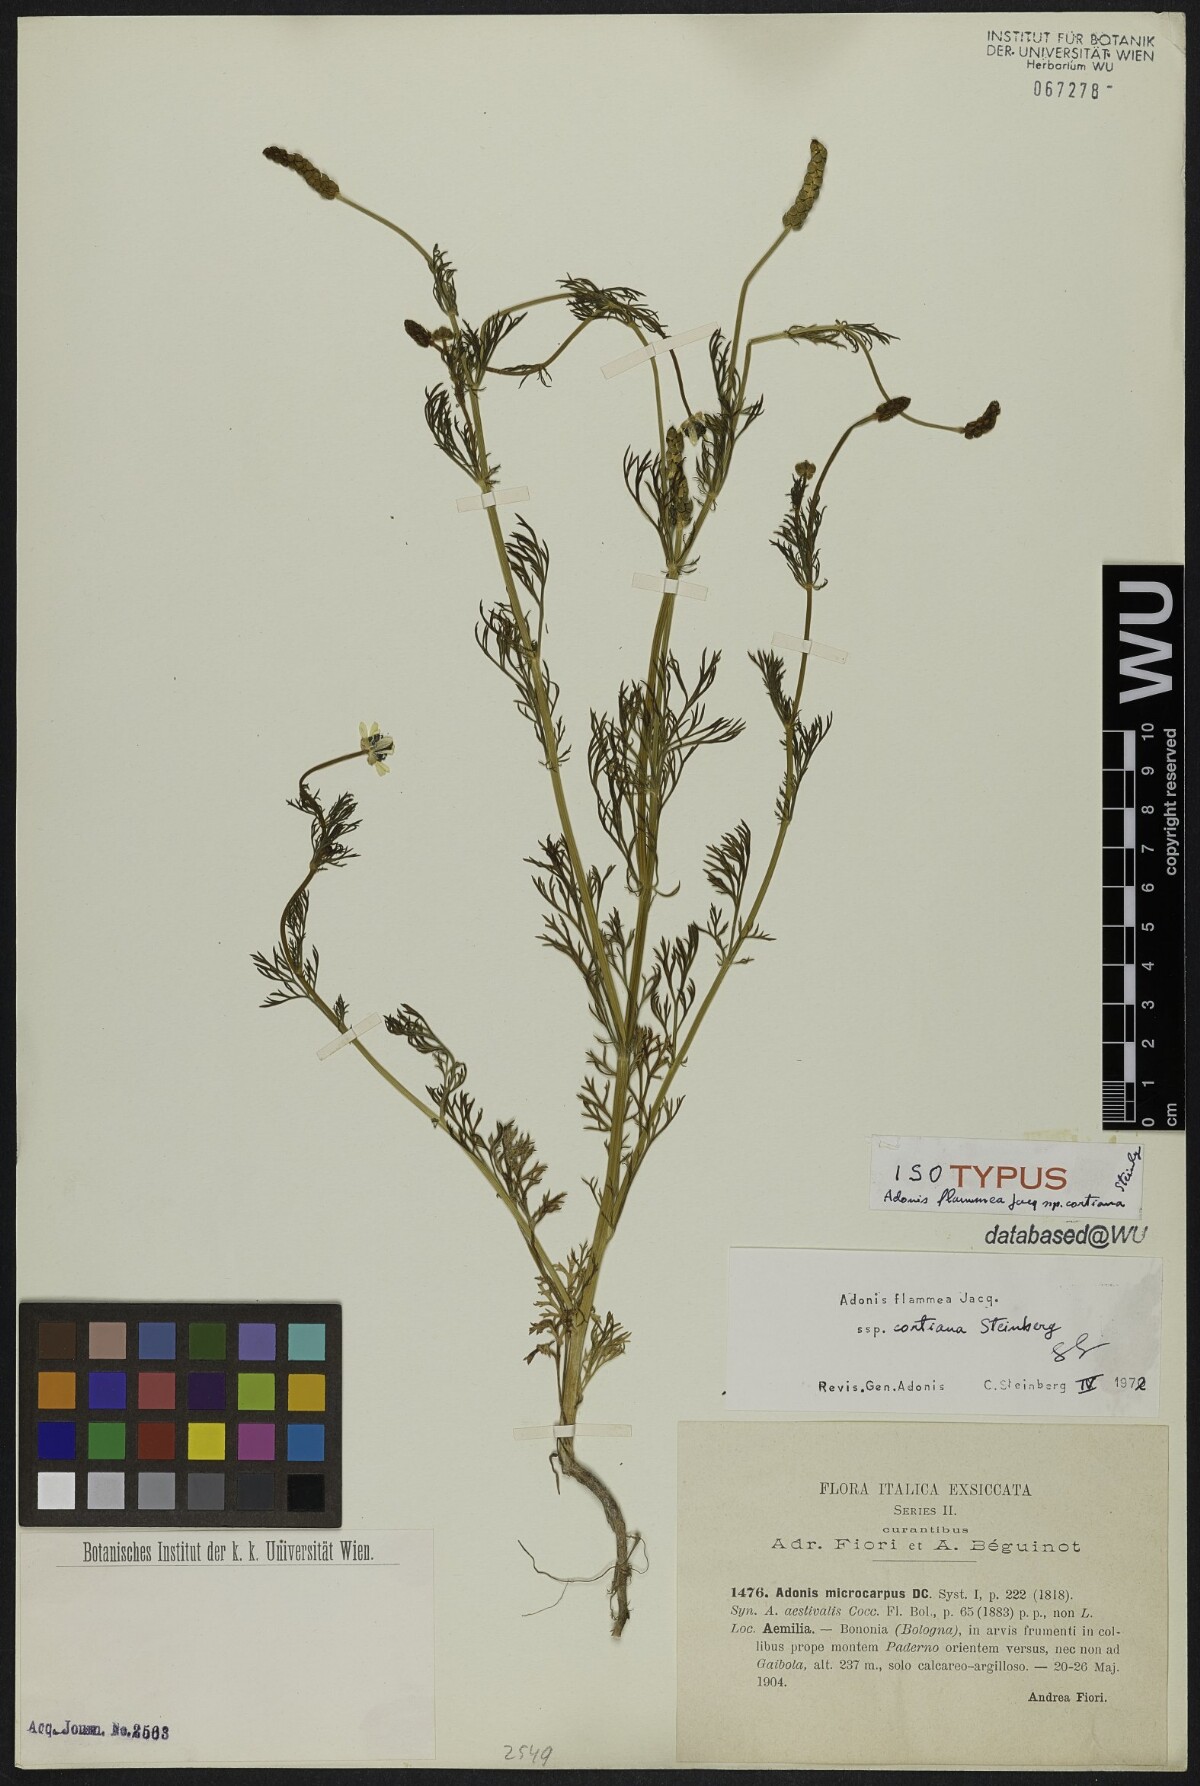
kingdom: Plantae
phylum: Tracheophyta
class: Magnoliopsida
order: Ranunculales
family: Ranunculaceae
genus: Adonis
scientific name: Adonis flammea
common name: Large pheasant's-eye
